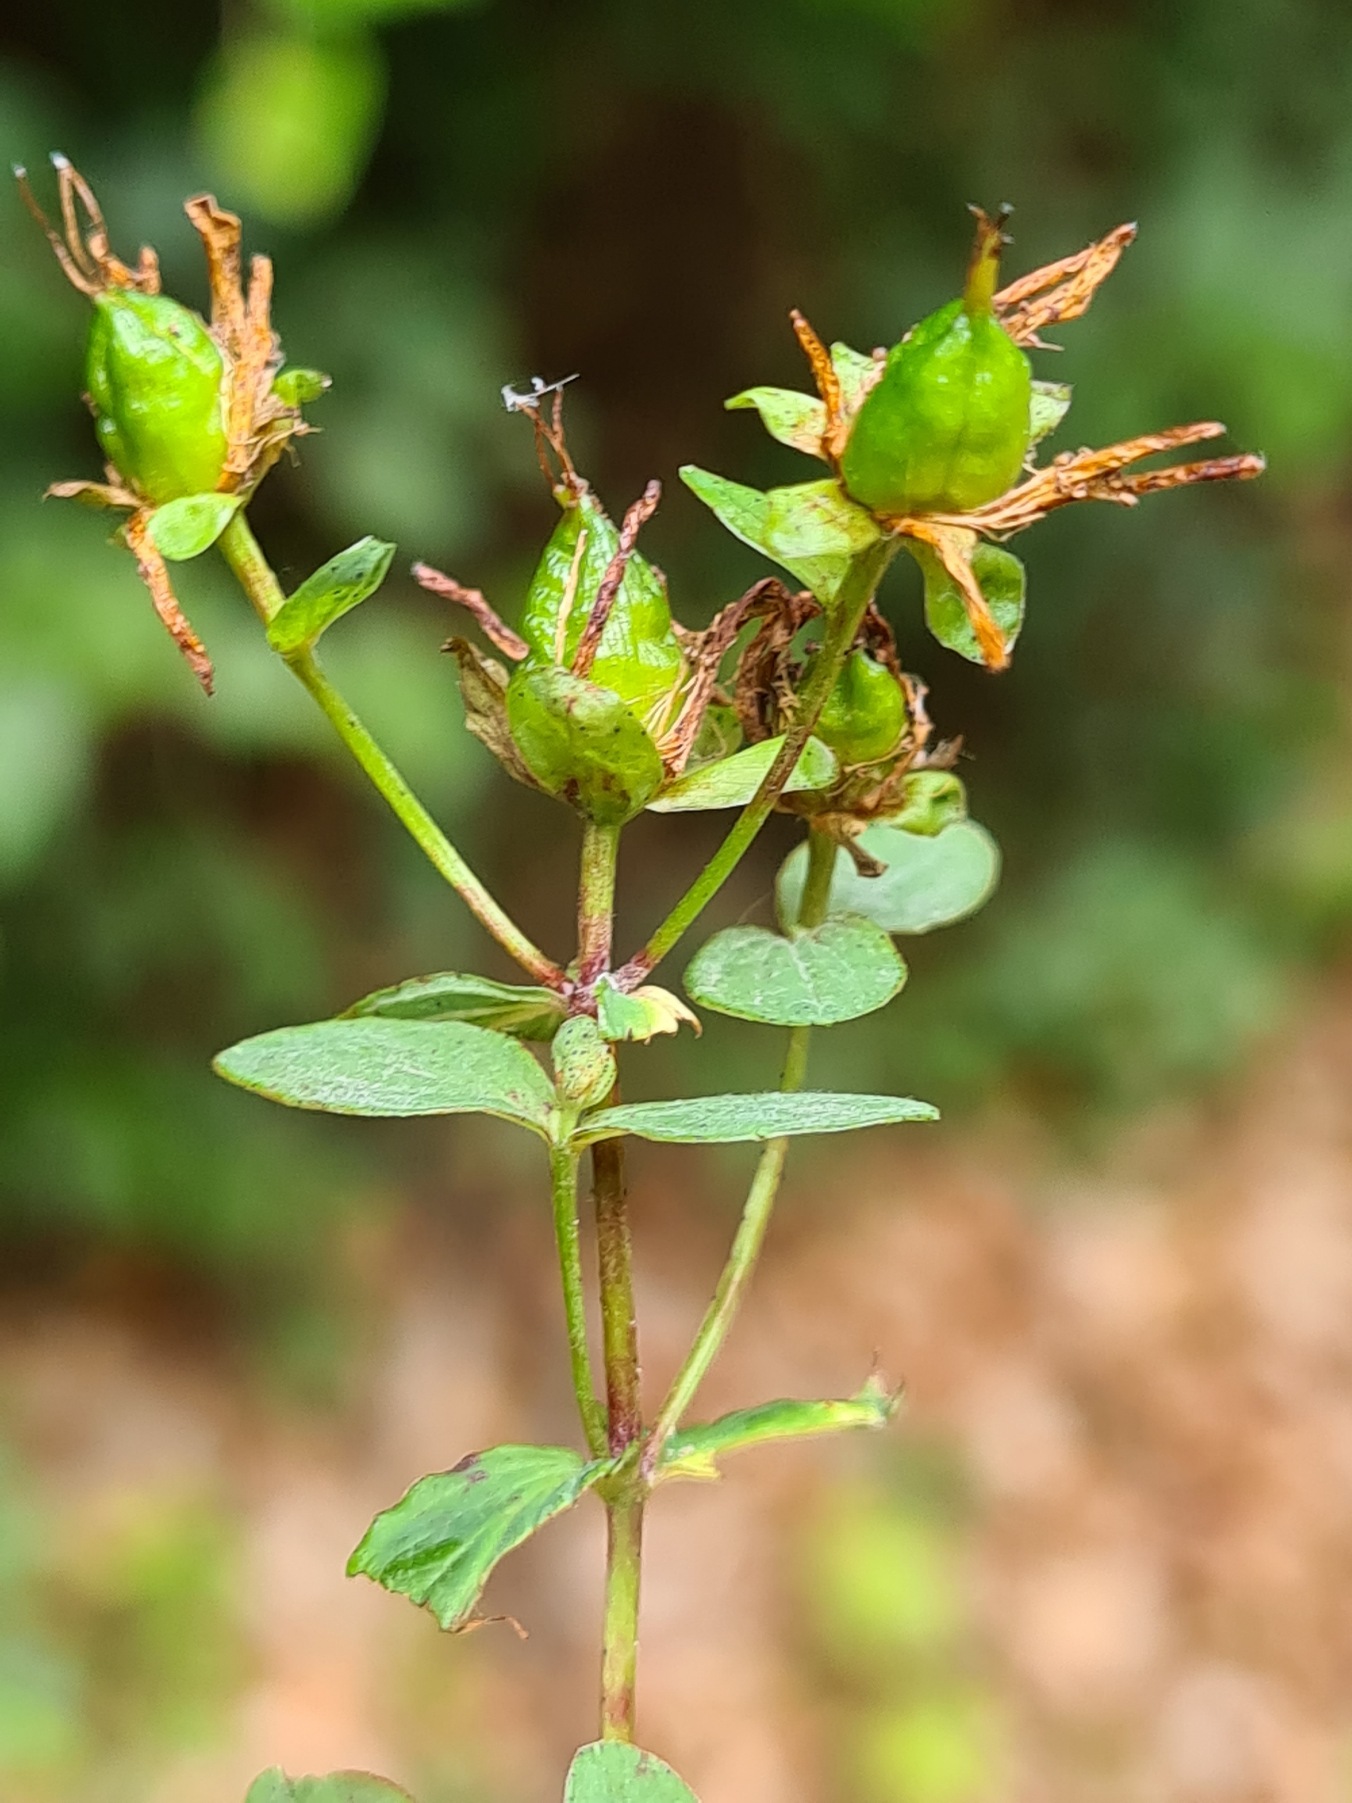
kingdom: Plantae
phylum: Tracheophyta
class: Magnoliopsida
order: Malpighiales
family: Hypericaceae
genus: Hypericum
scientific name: Hypericum maculatum
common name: Kantet perikon
